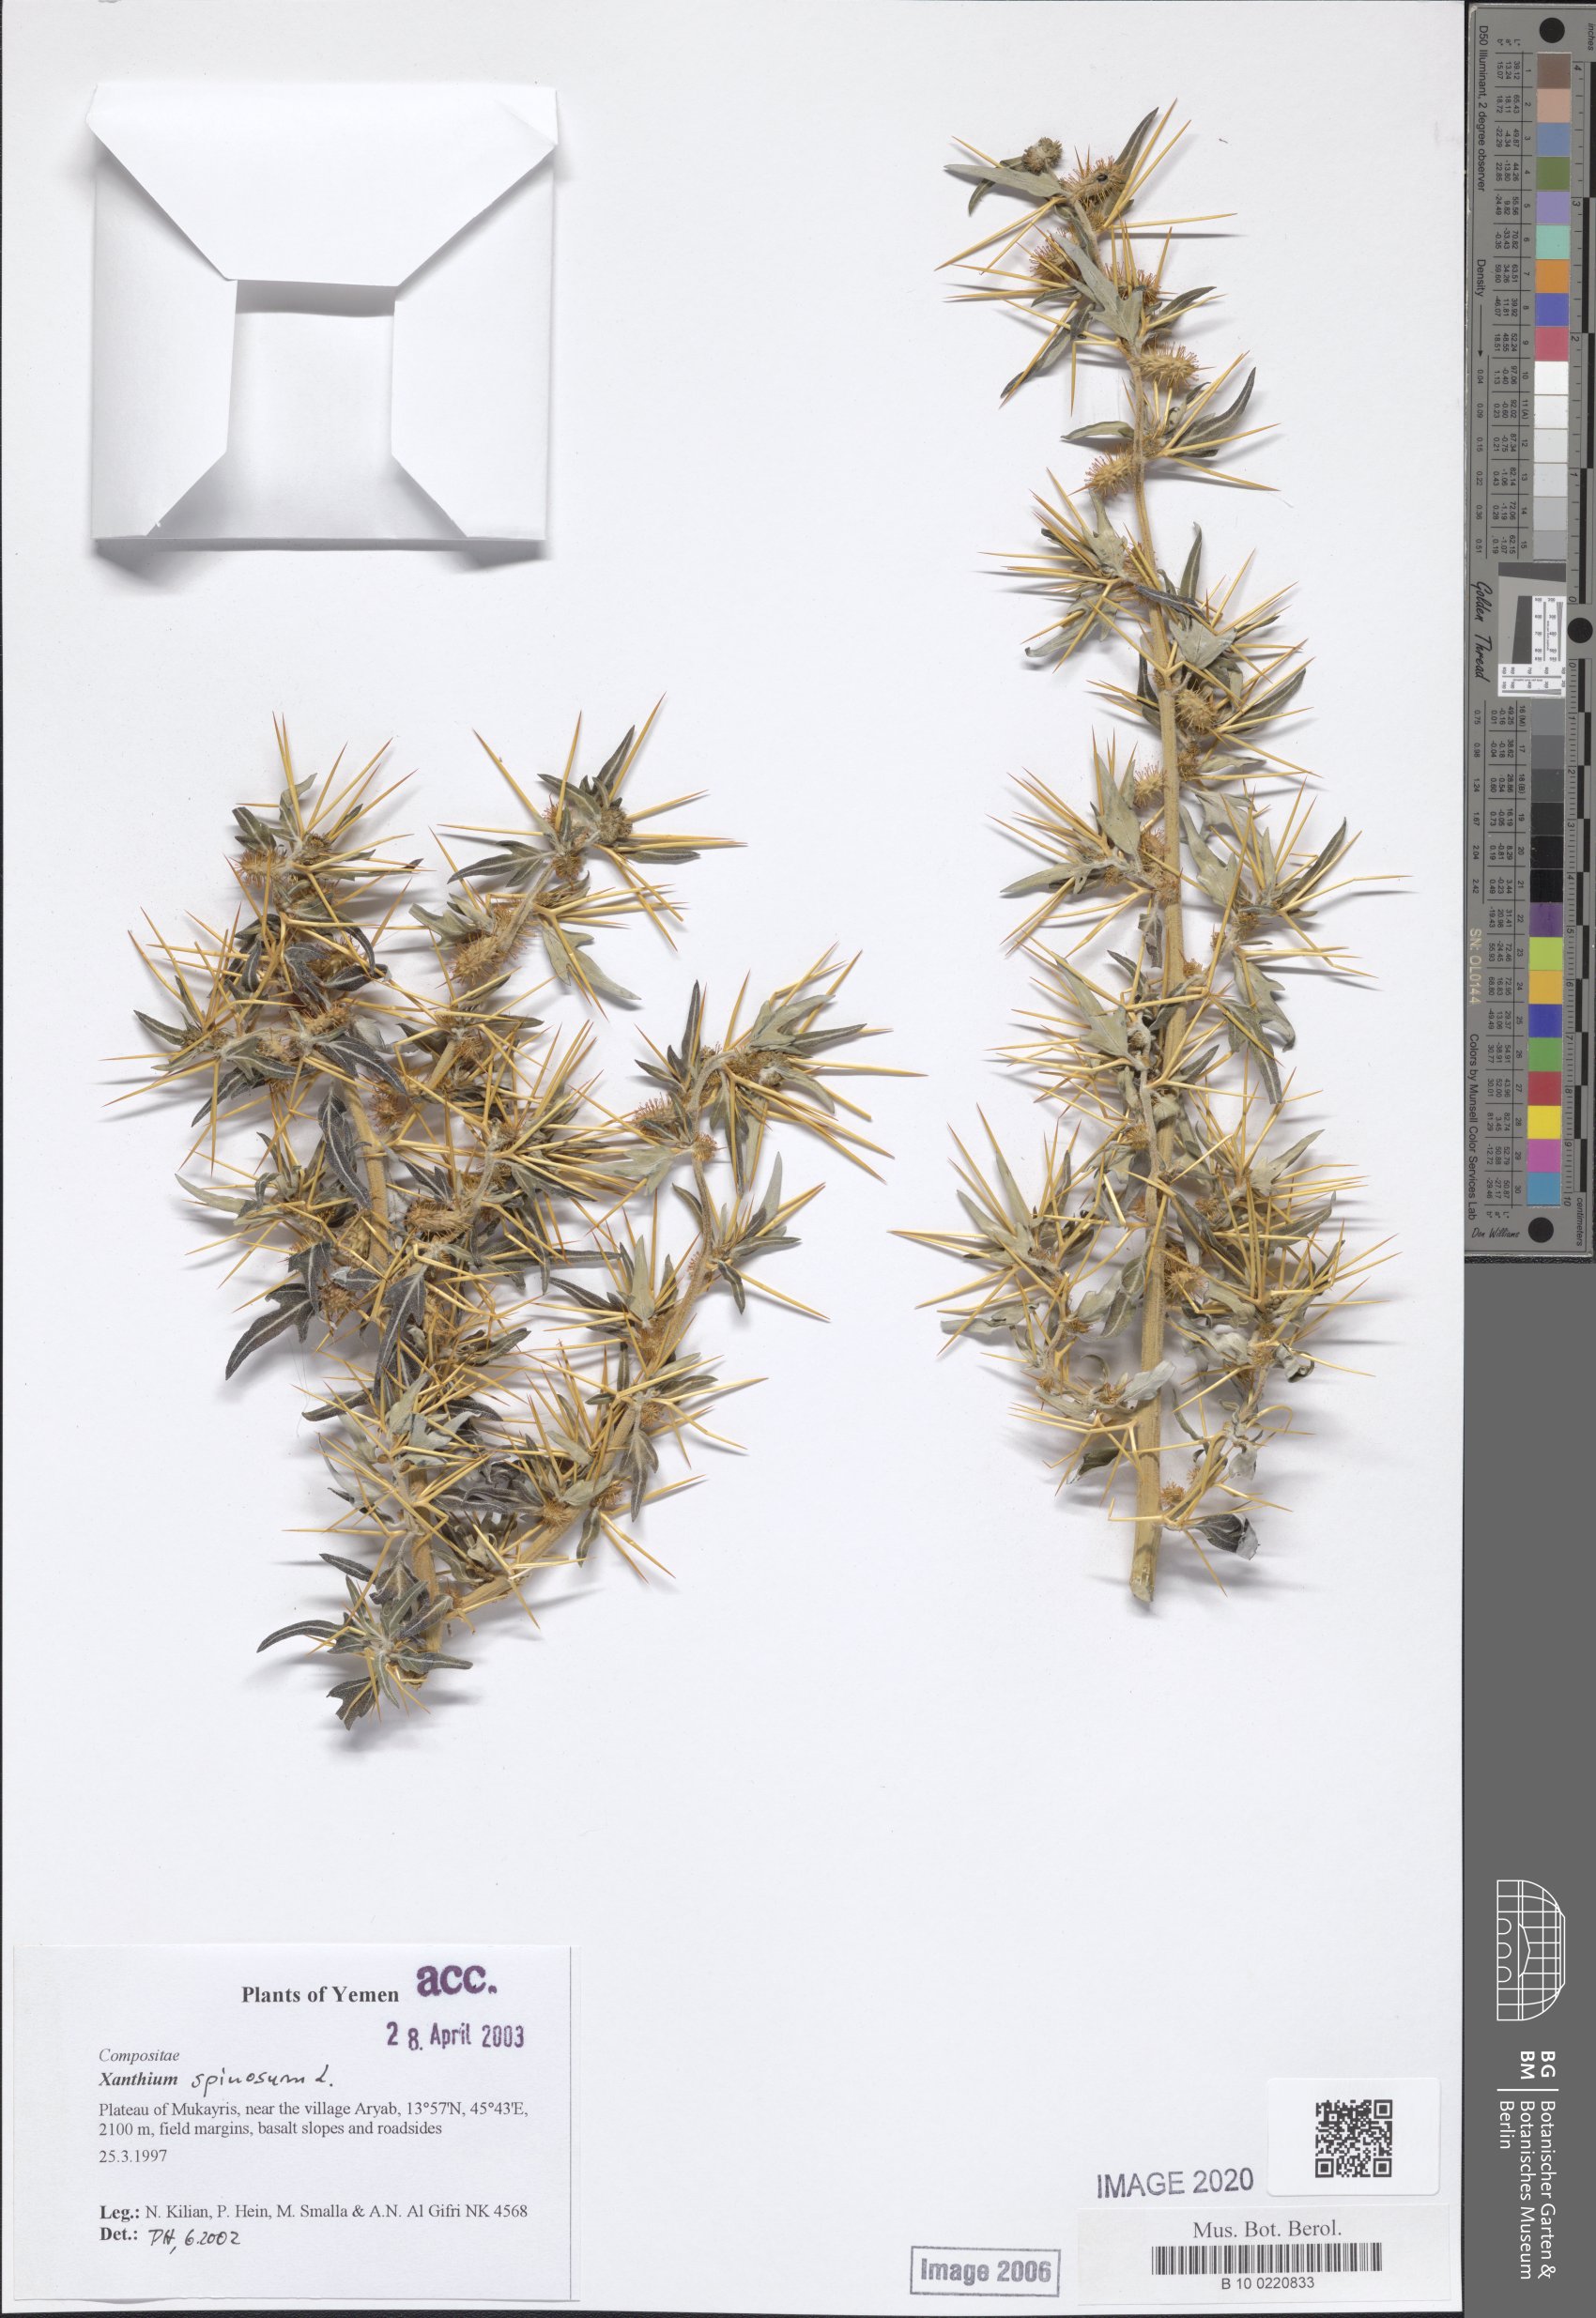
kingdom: Plantae
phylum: Tracheophyta
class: Magnoliopsida
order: Asterales
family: Asteraceae
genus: Xanthium
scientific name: Xanthium spinosum
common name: Spiny cocklebur
